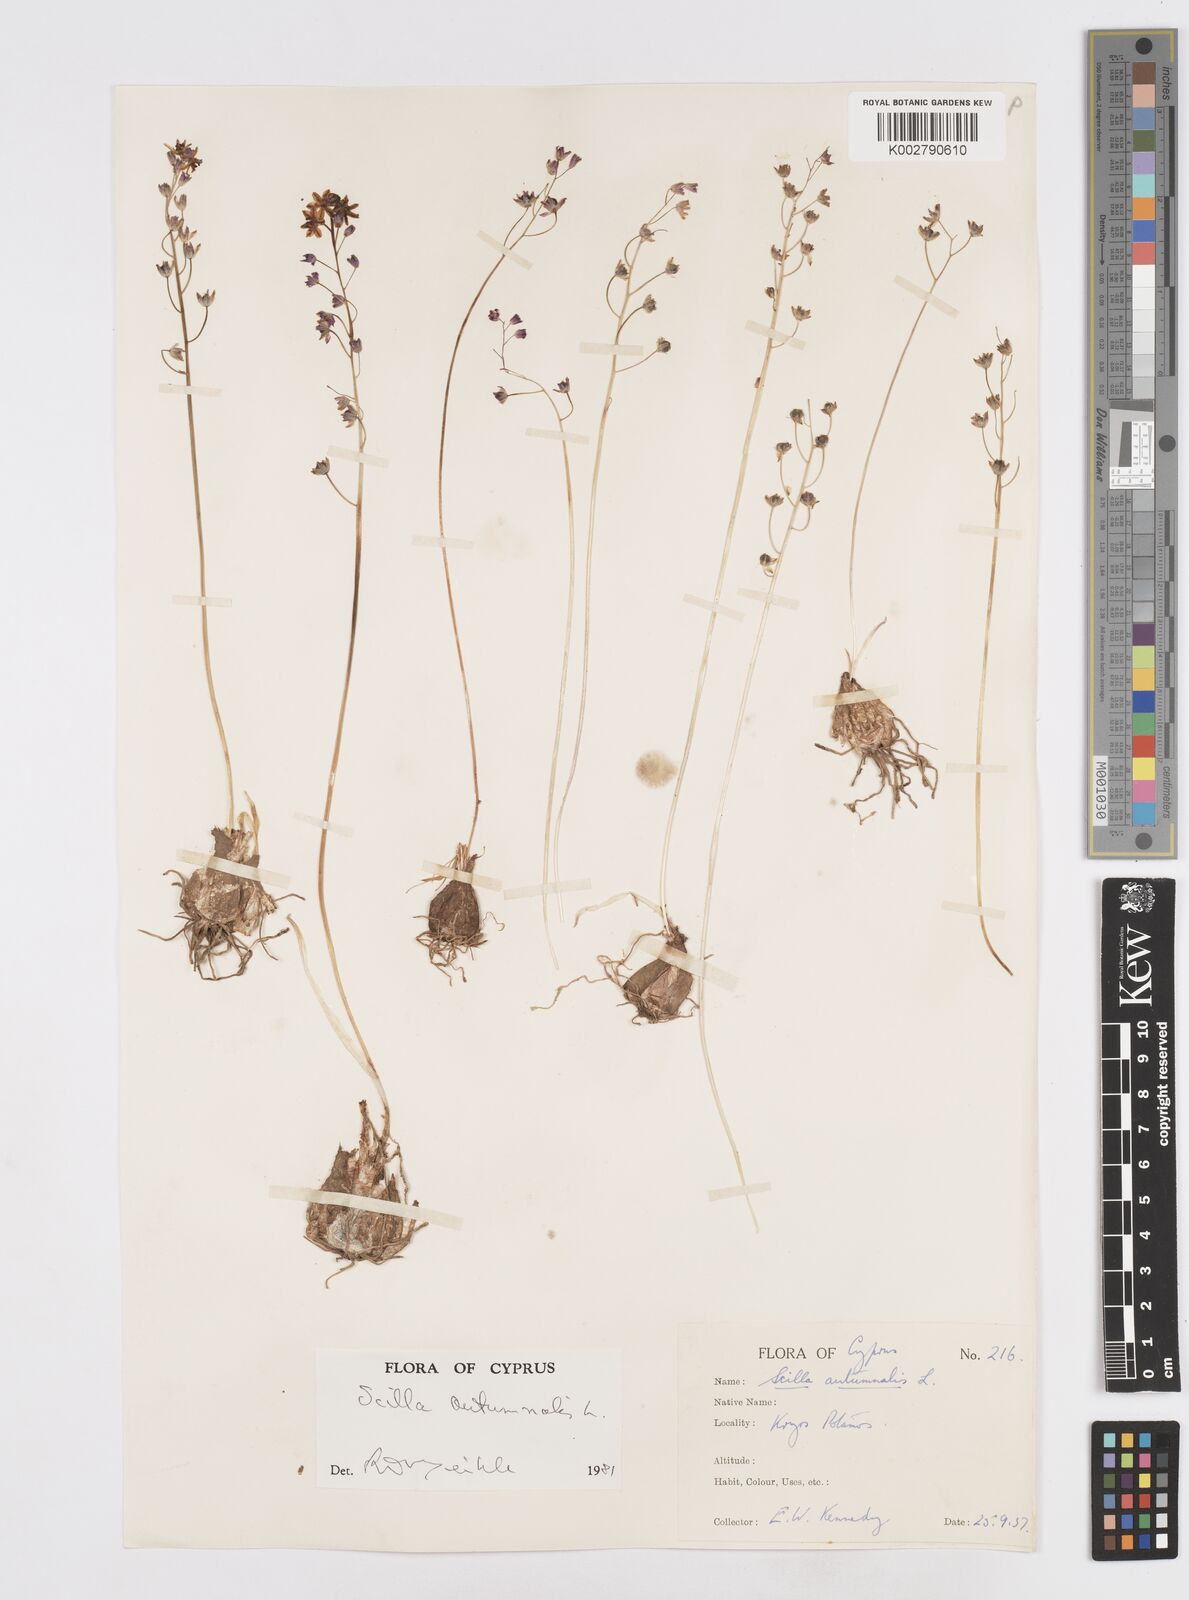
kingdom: Plantae
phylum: Tracheophyta
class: Liliopsida
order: Asparagales
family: Asparagaceae
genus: Prospero
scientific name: Prospero autumnale
